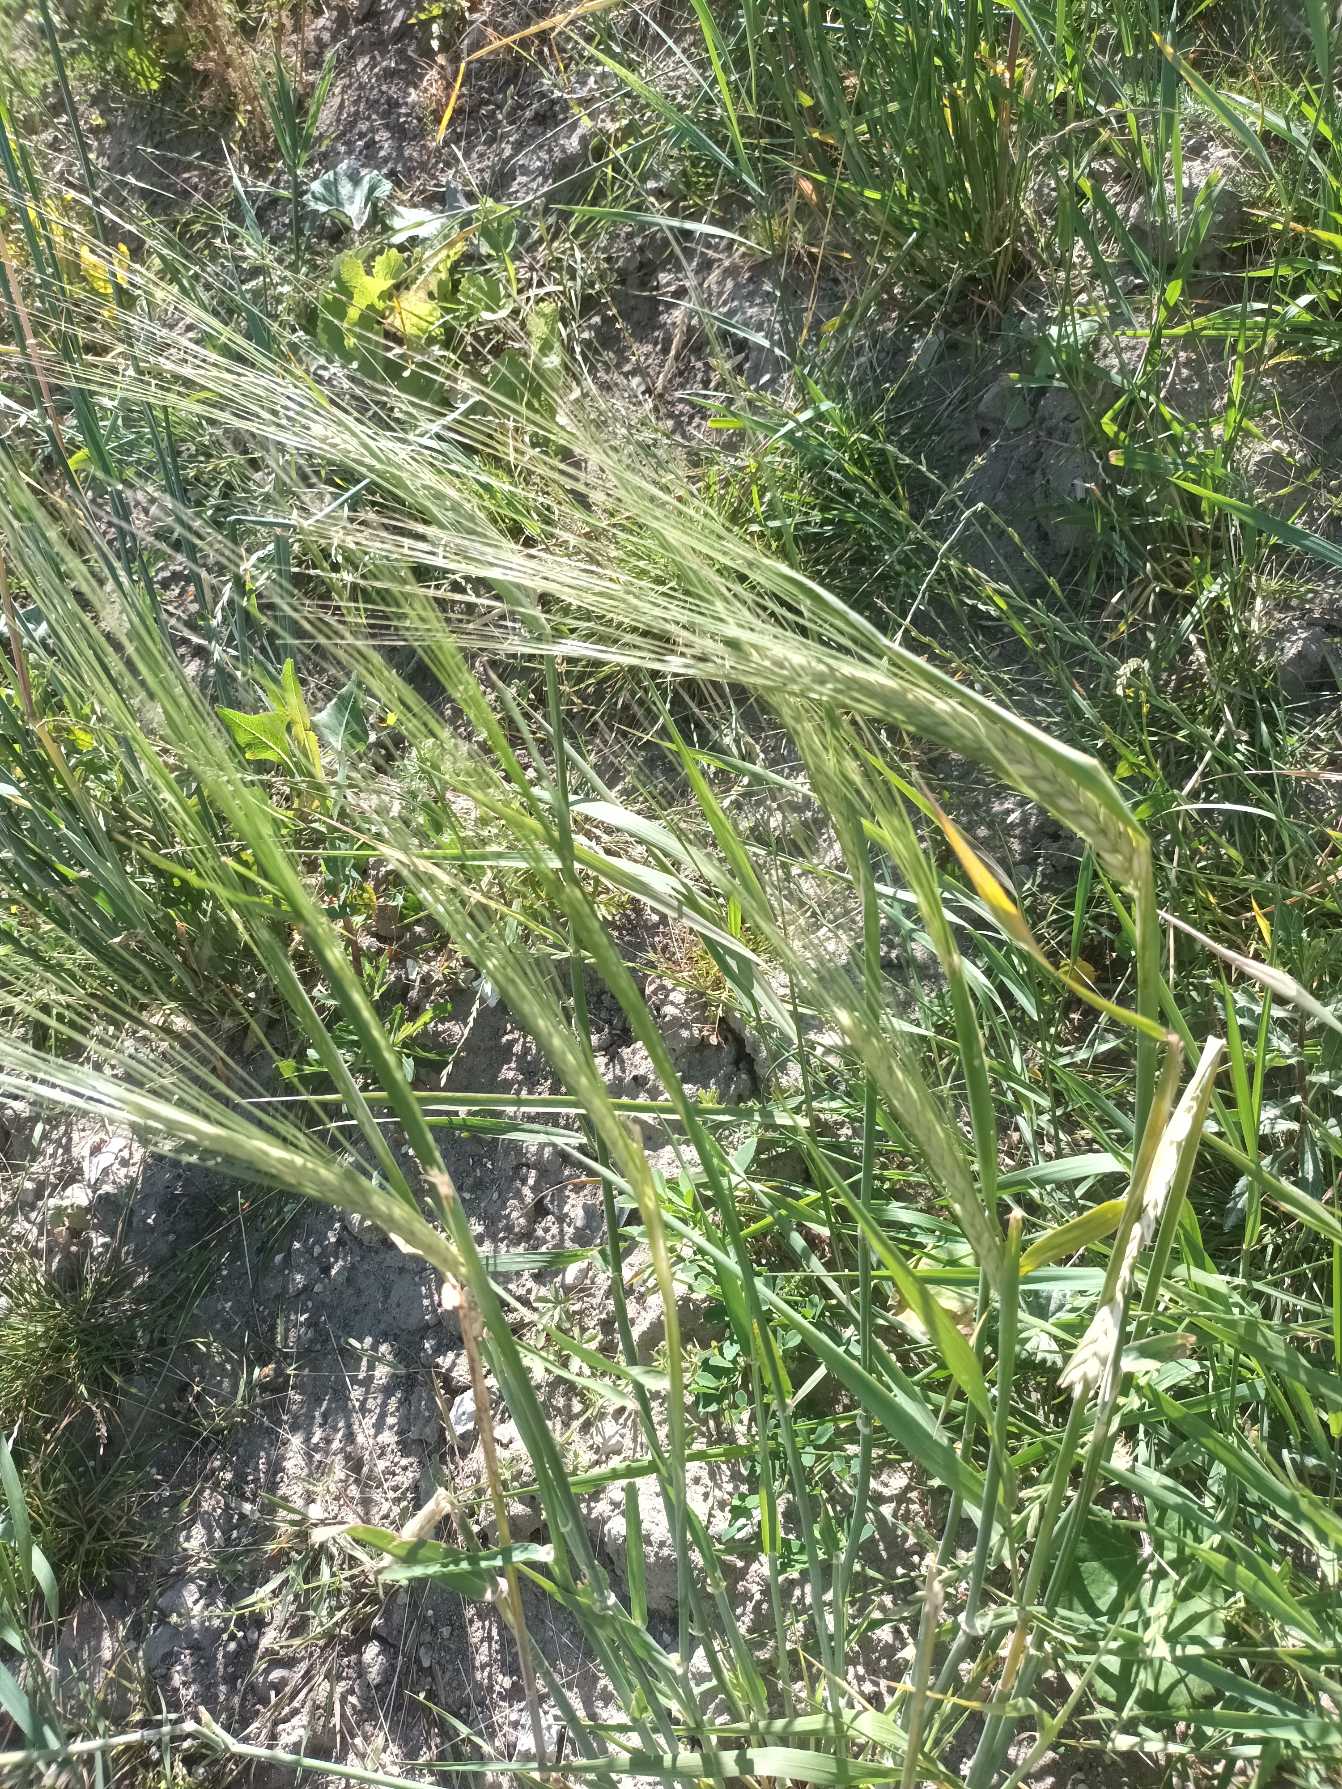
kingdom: Plantae
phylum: Tracheophyta
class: Liliopsida
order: Poales
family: Poaceae
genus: Hordeum
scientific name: Hordeum vulgare
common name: Toradet byg
